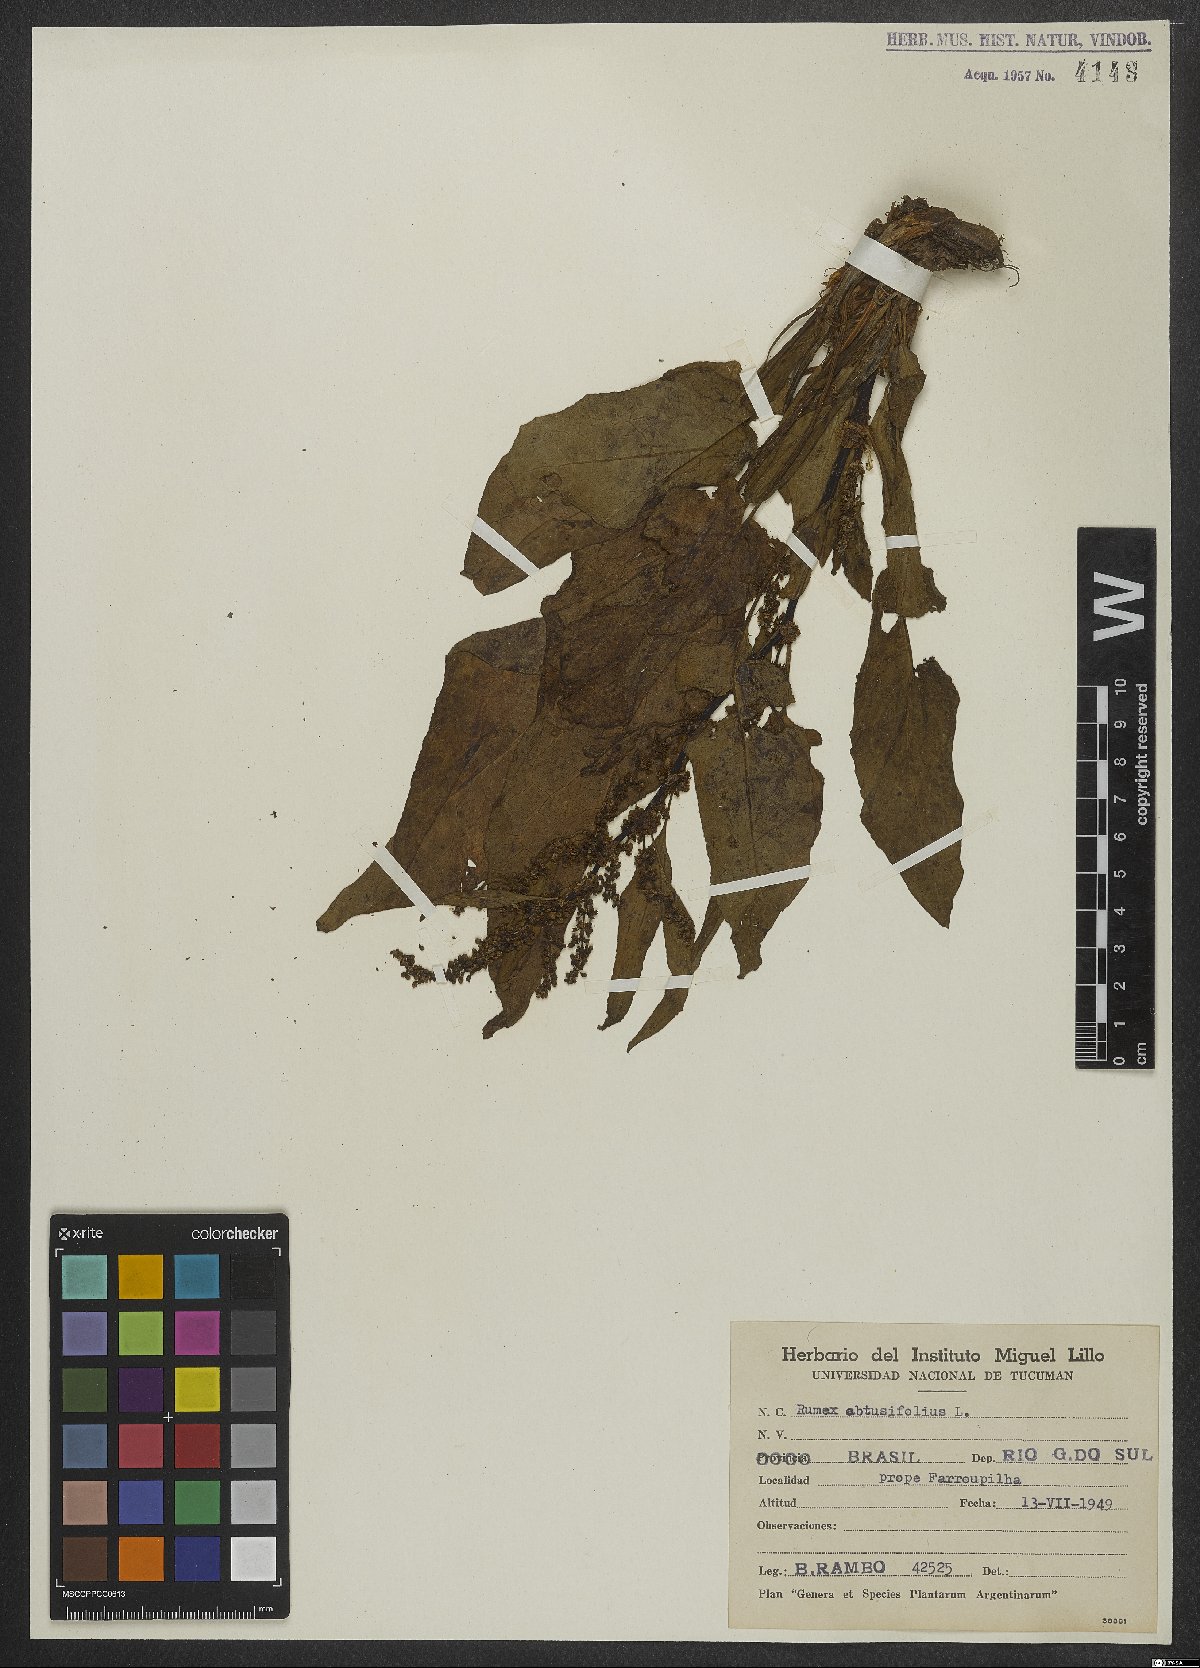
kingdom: Plantae
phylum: Tracheophyta
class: Magnoliopsida
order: Caryophyllales
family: Polygonaceae
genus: Rumex
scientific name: Rumex obtusifolius
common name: Bitter dock
